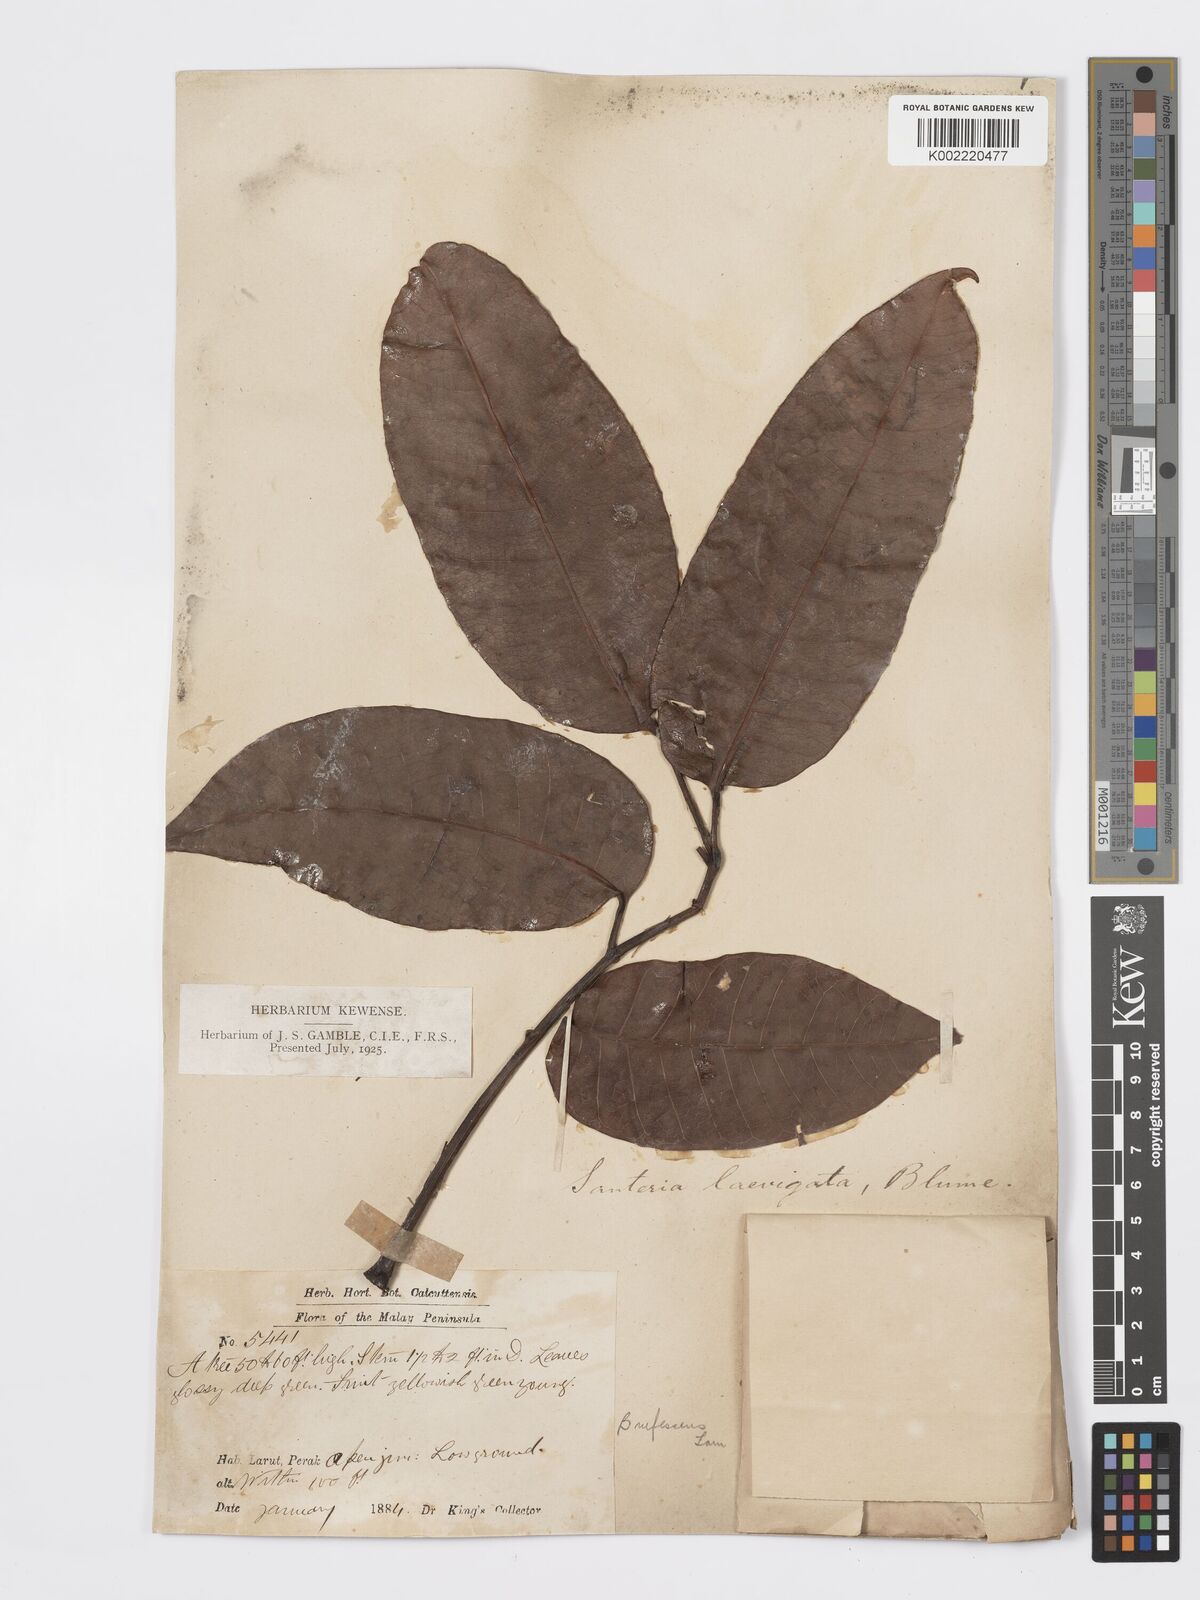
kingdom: Plantae
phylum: Tracheophyta
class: Magnoliopsida
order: Sapindales
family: Burseraceae
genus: Santiria
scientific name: Santiria laevigata
